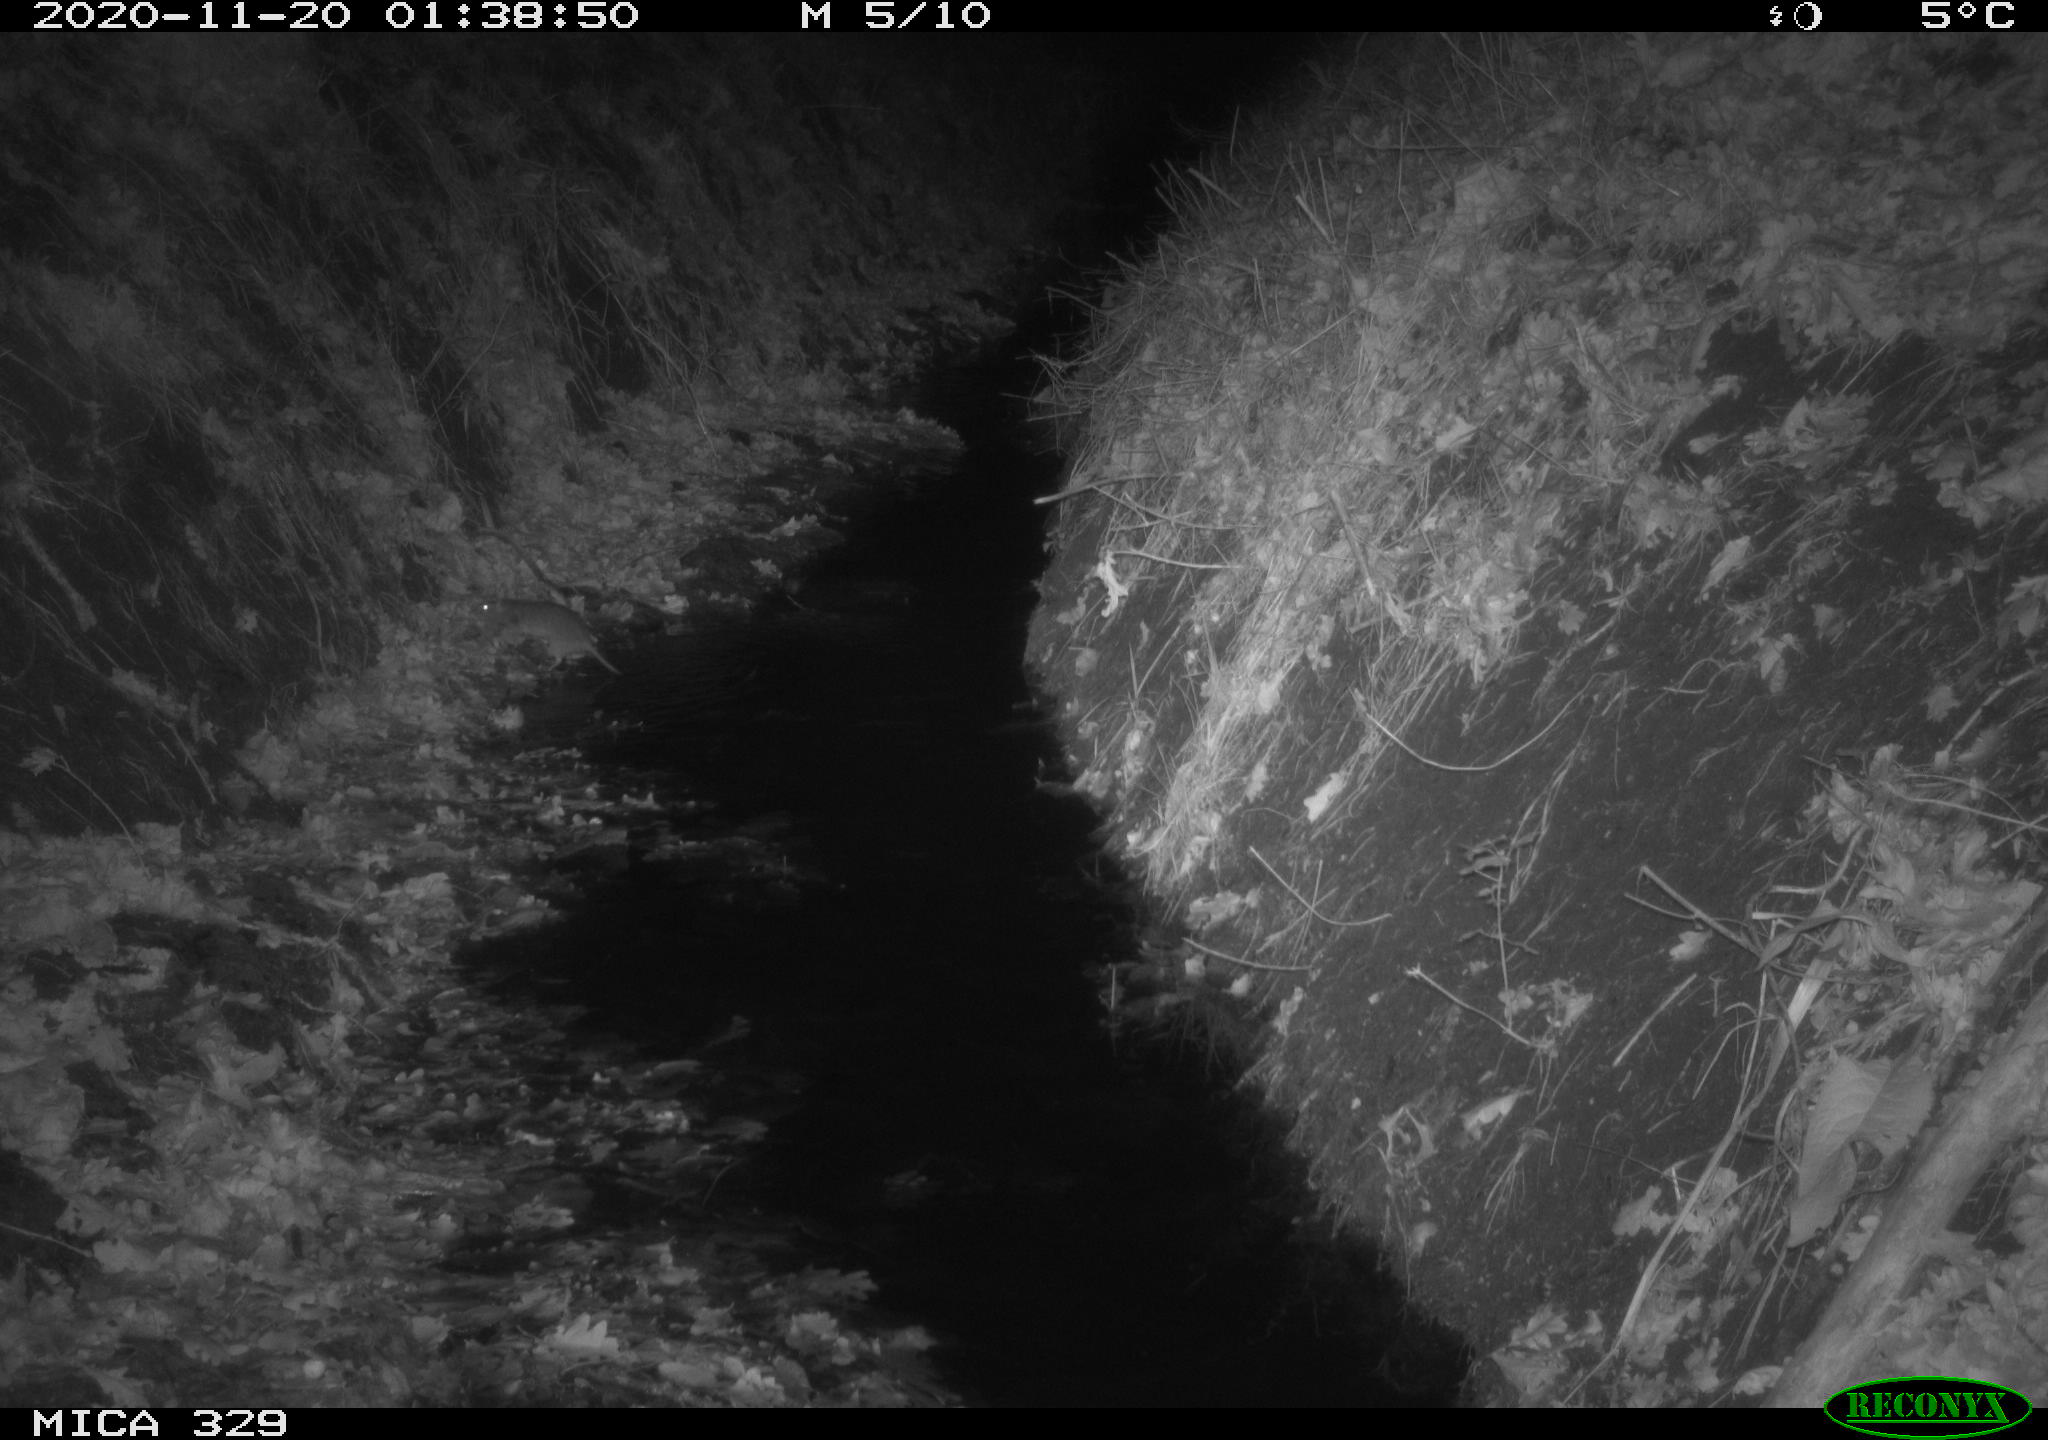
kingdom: Animalia
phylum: Chordata
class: Mammalia
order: Rodentia
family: Muridae
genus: Rattus
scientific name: Rattus norvegicus
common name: Brown rat
